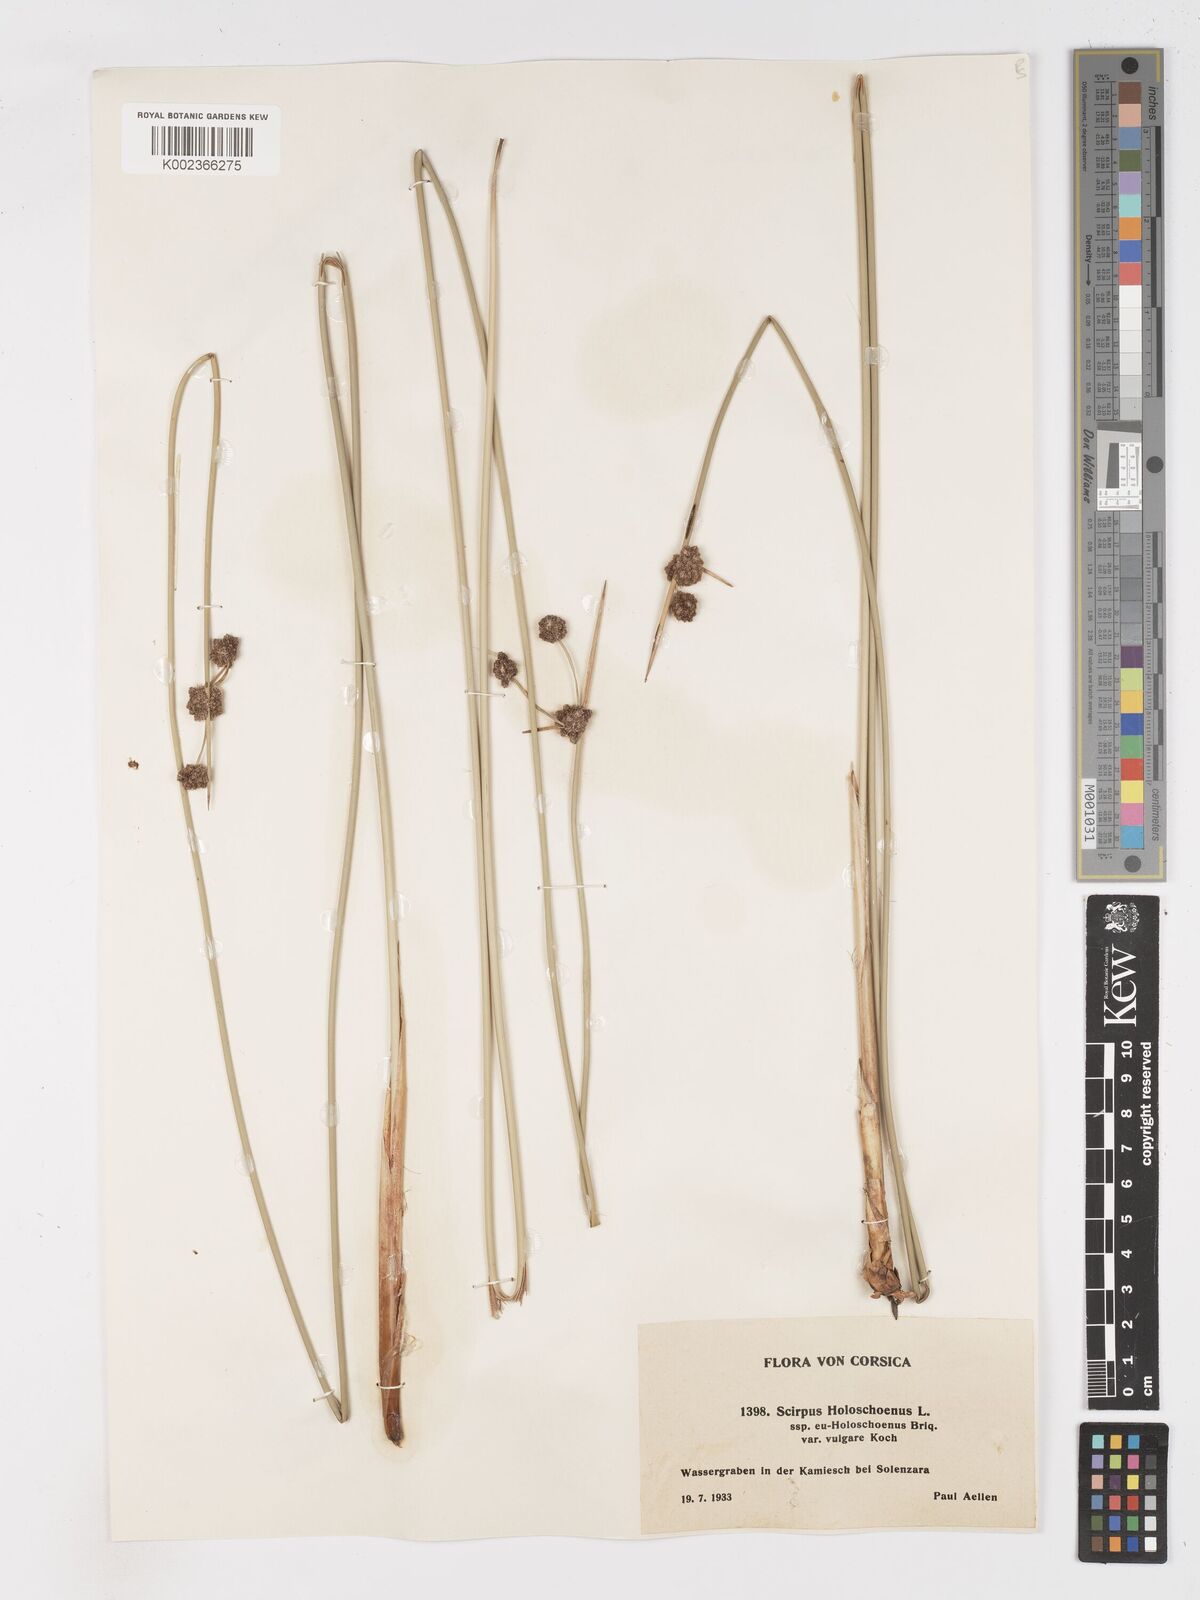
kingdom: Plantae
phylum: Tracheophyta
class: Liliopsida
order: Poales
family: Cyperaceae
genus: Scirpoides
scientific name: Scirpoides holoschoenus
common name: Round-headed club-rush
